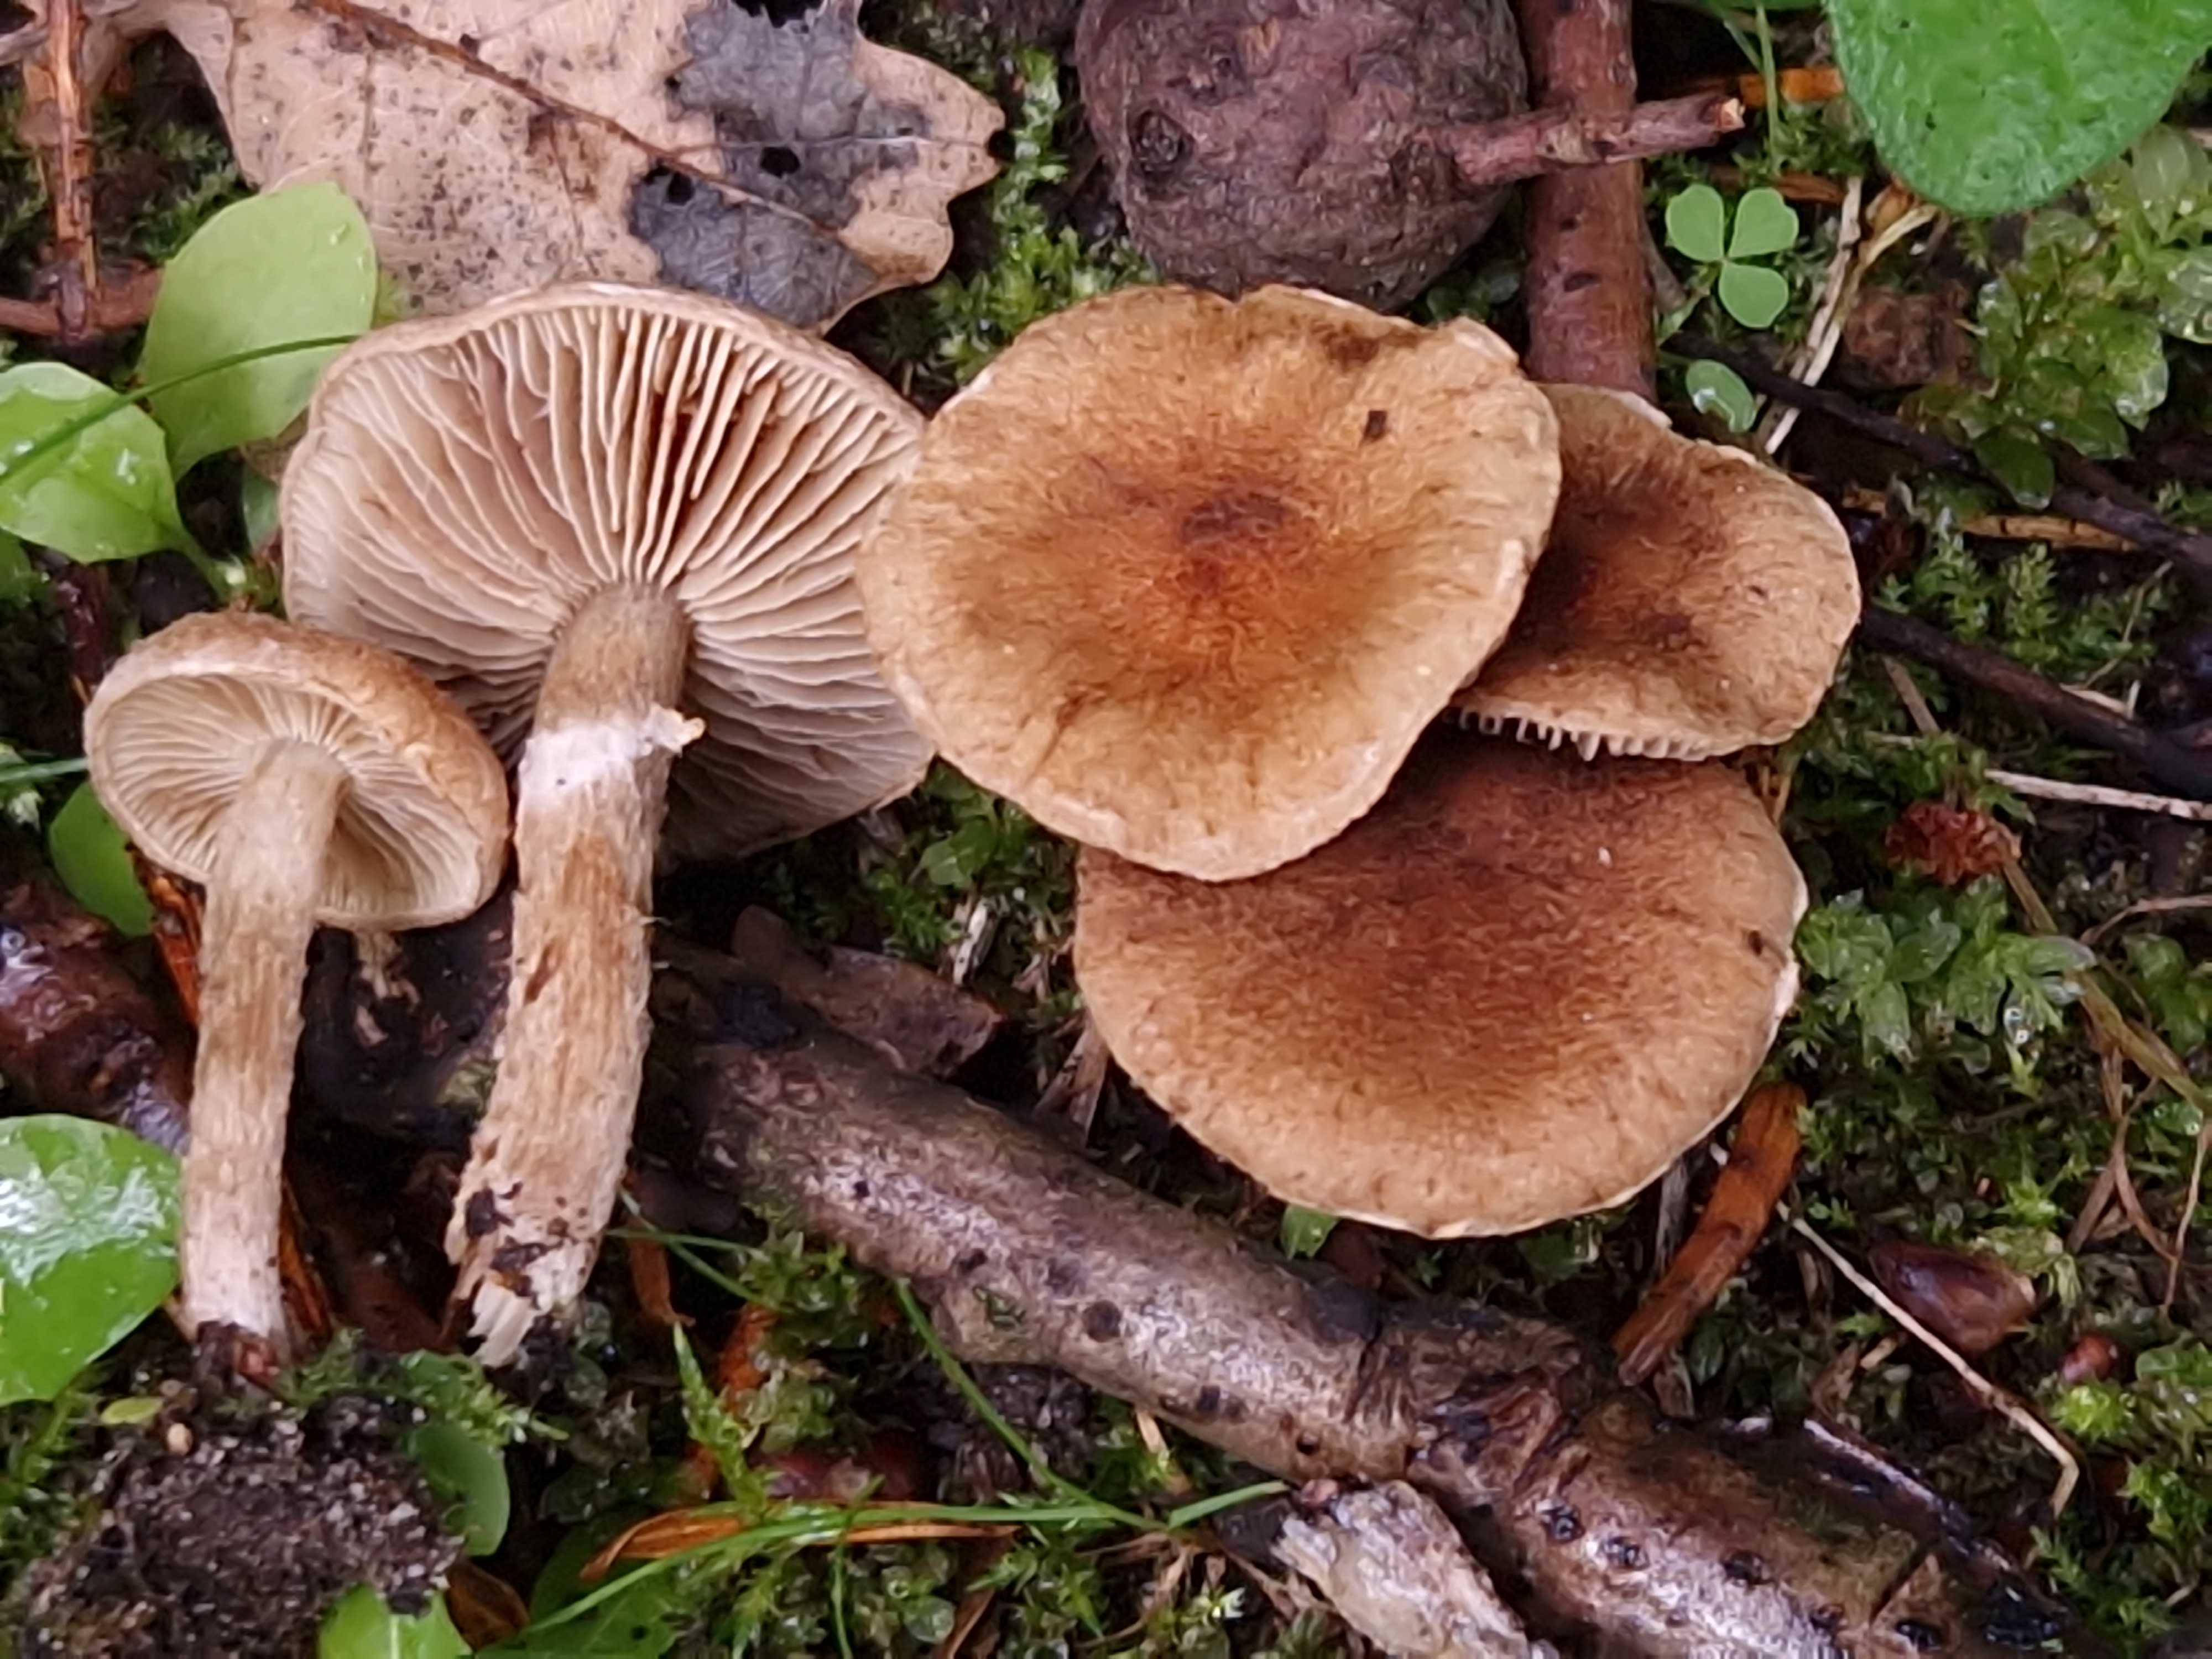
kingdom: Fungi
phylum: Basidiomycota
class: Agaricomycetes
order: Agaricales
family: Inocybaceae
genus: Mallocybe
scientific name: Mallocybe plebeia
